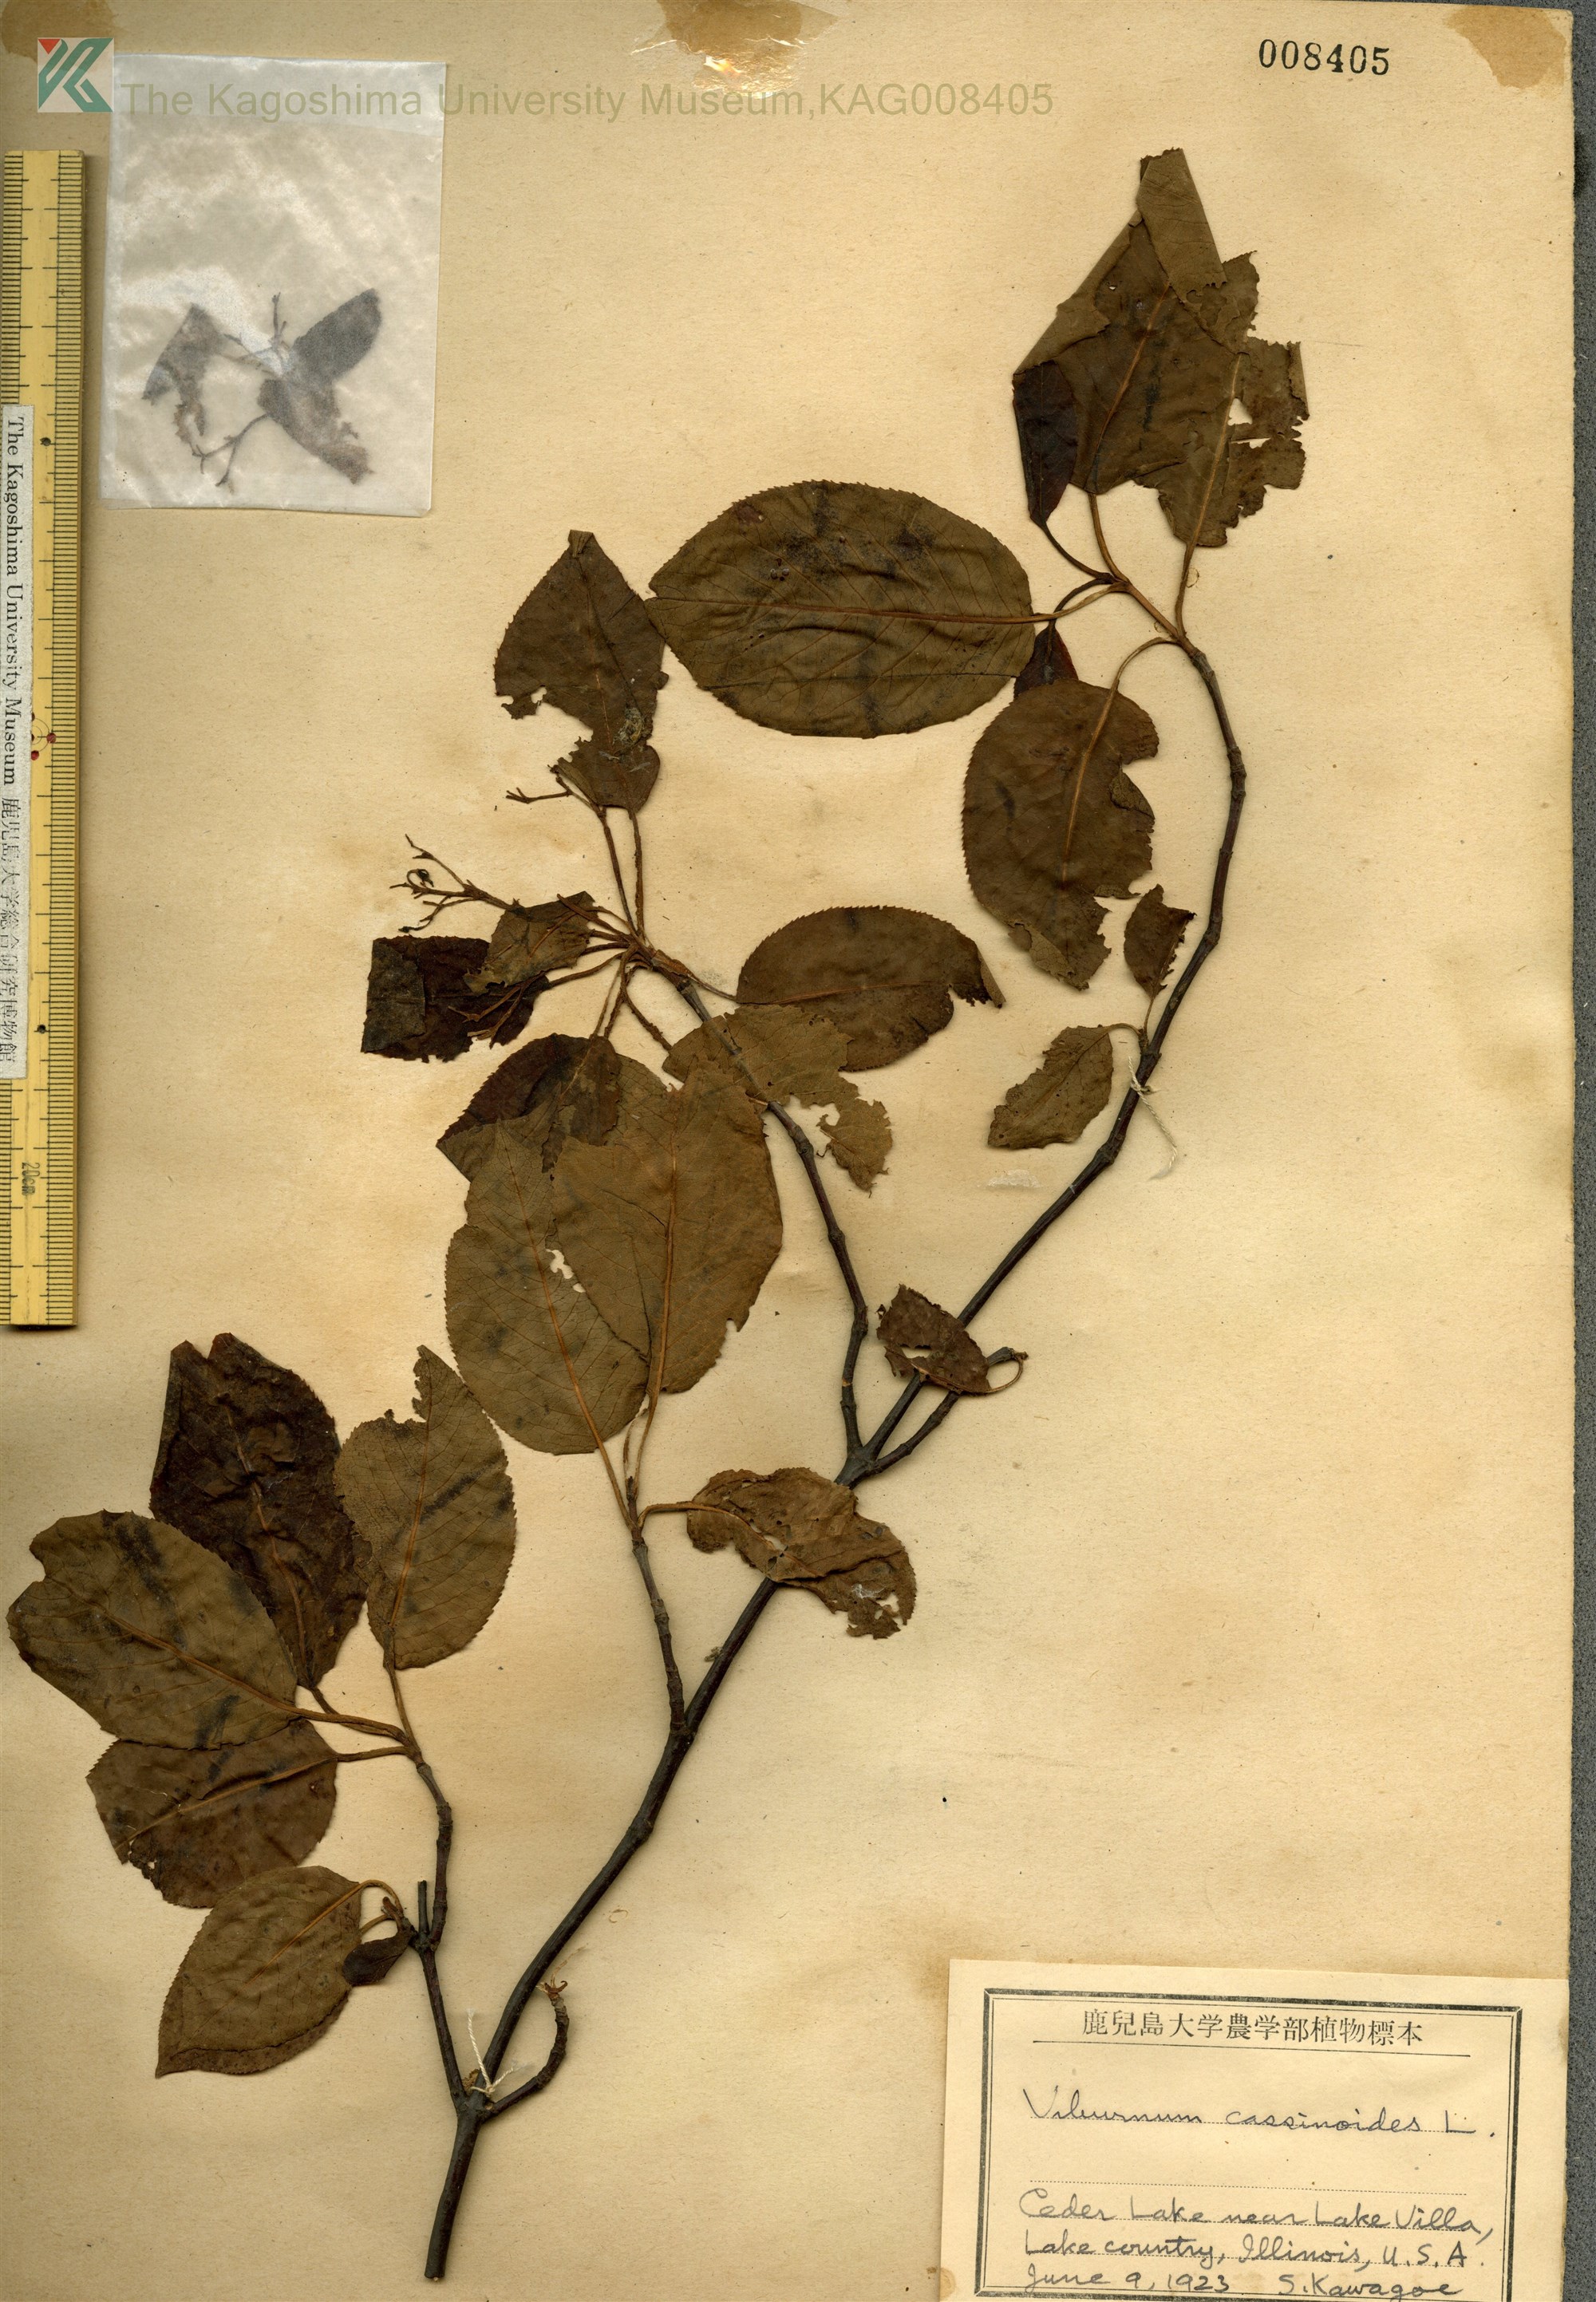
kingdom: Plantae
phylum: Tracheophyta
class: Magnoliopsida
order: Dipsacales
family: Viburnaceae
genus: Viburnum
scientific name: Viburnum cassinoides
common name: Swamp haw
